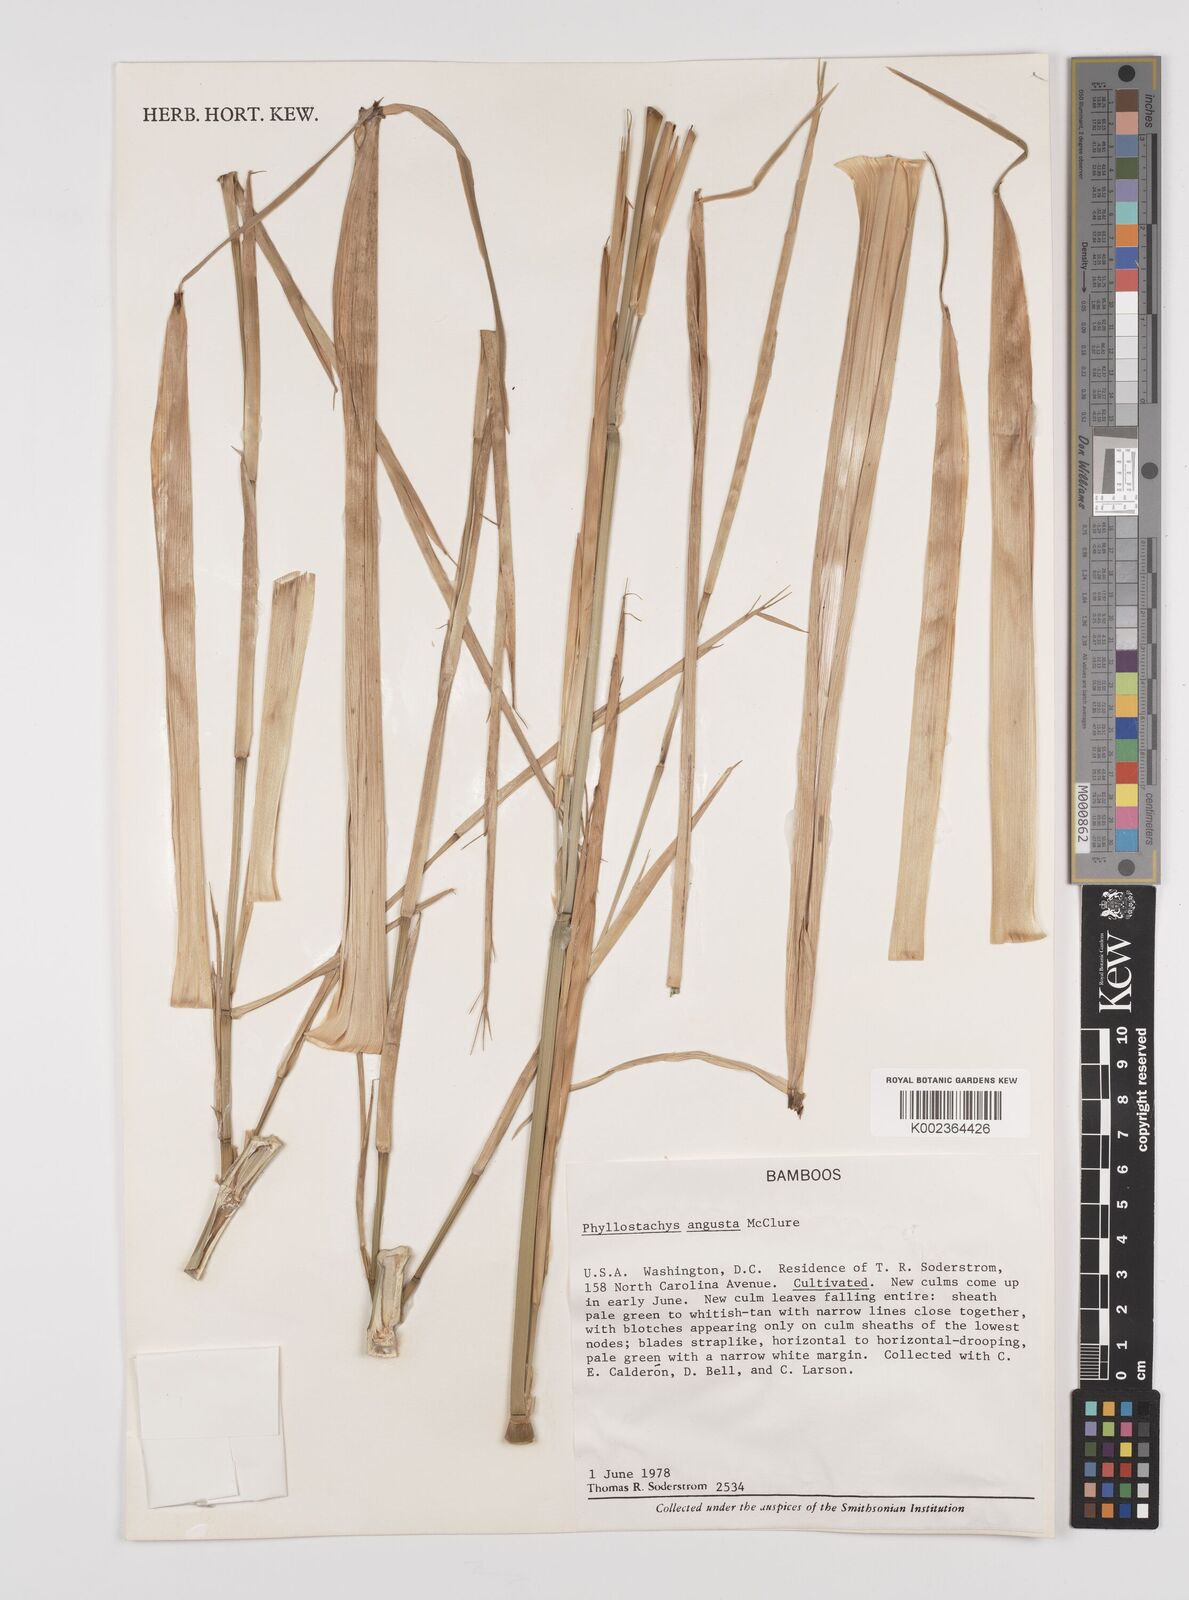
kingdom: Plantae
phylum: Tracheophyta
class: Liliopsida
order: Poales
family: Poaceae
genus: Phyllostachys
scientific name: Phyllostachys angusta
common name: Stone bamboo
